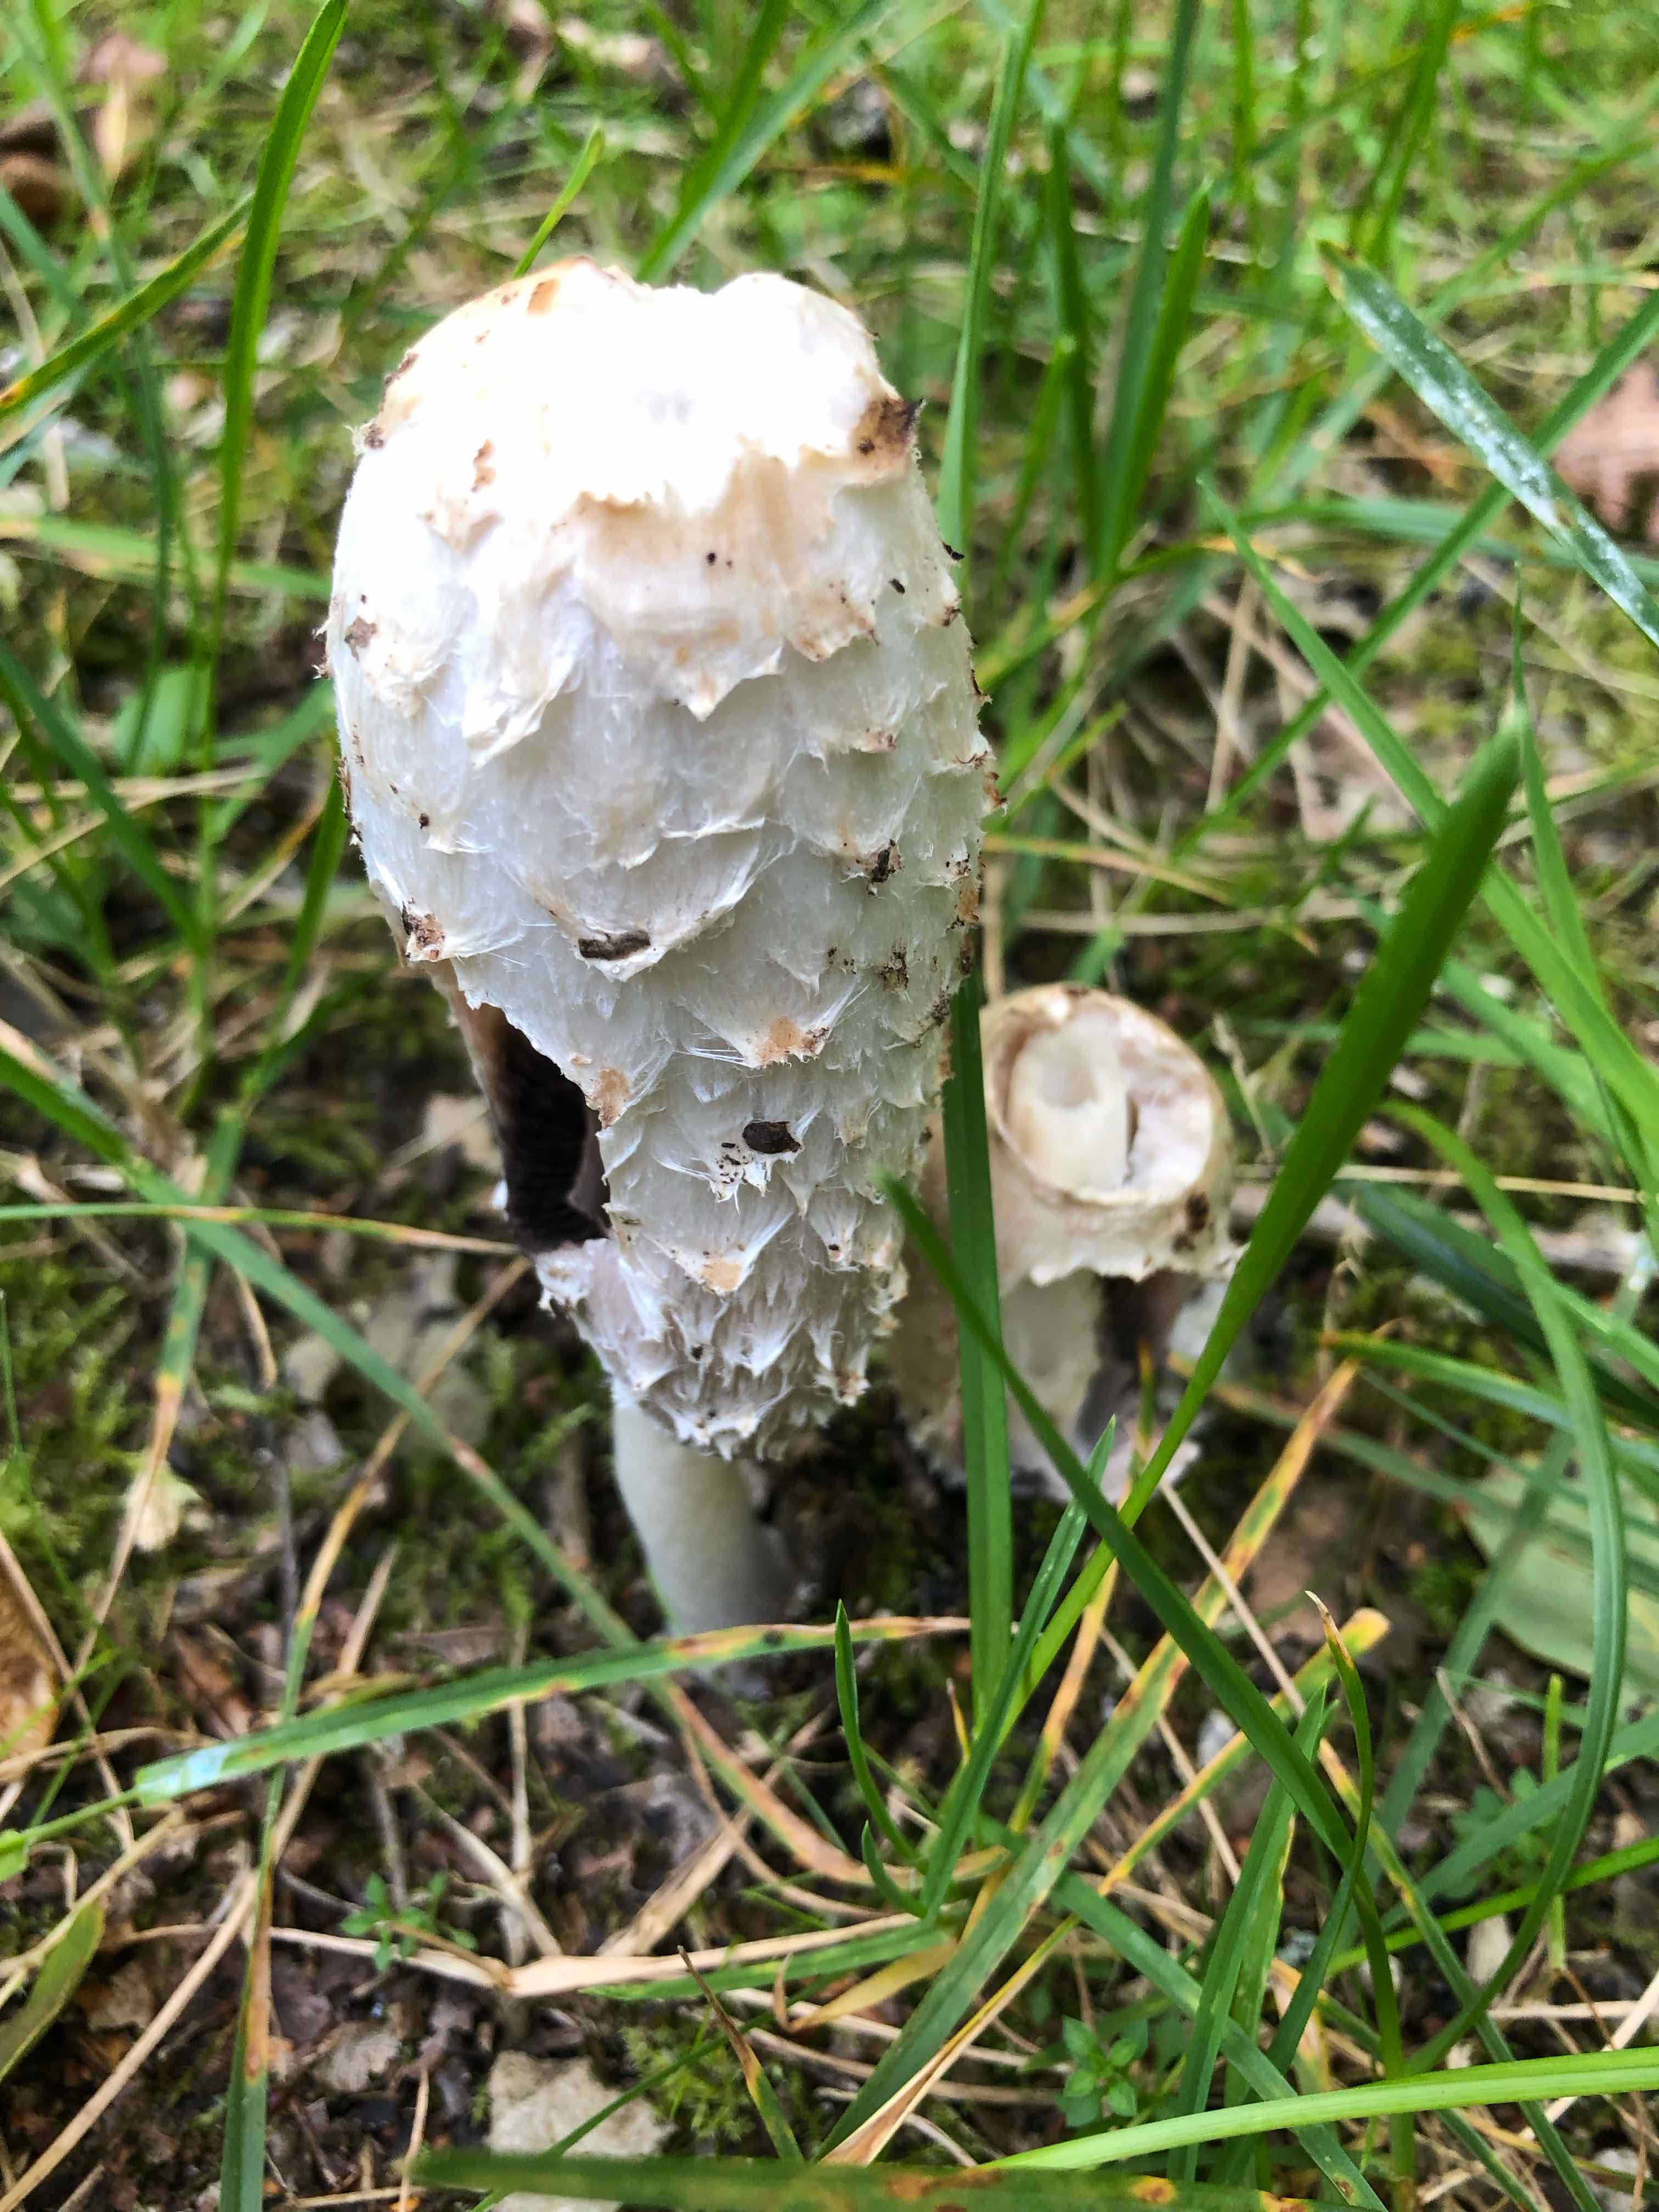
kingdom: Fungi
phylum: Basidiomycota
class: Agaricomycetes
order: Agaricales
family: Agaricaceae
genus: Coprinus
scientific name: Coprinus comatus
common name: stor parykhat
